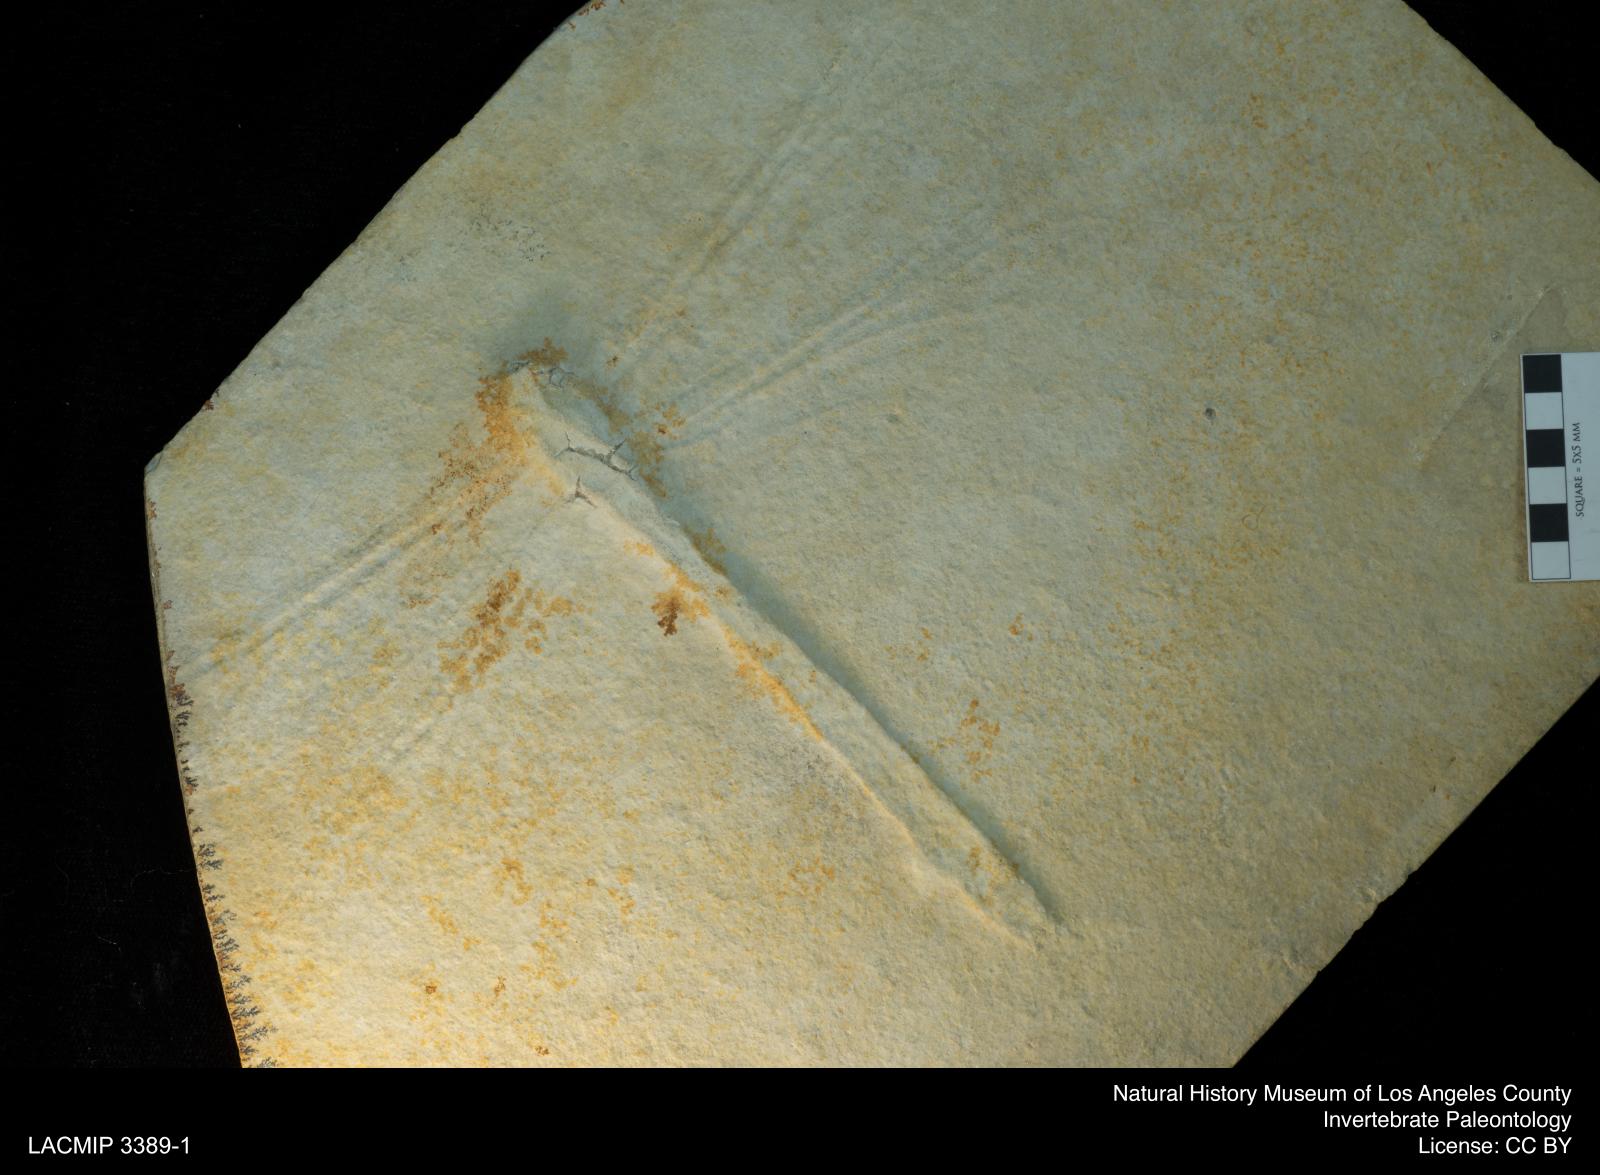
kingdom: Animalia
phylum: Arthropoda
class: Insecta
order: Odonata
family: Aktassiidae
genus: Aeschnogomphus
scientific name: Aeschnogomphus Aeschna intermedia
